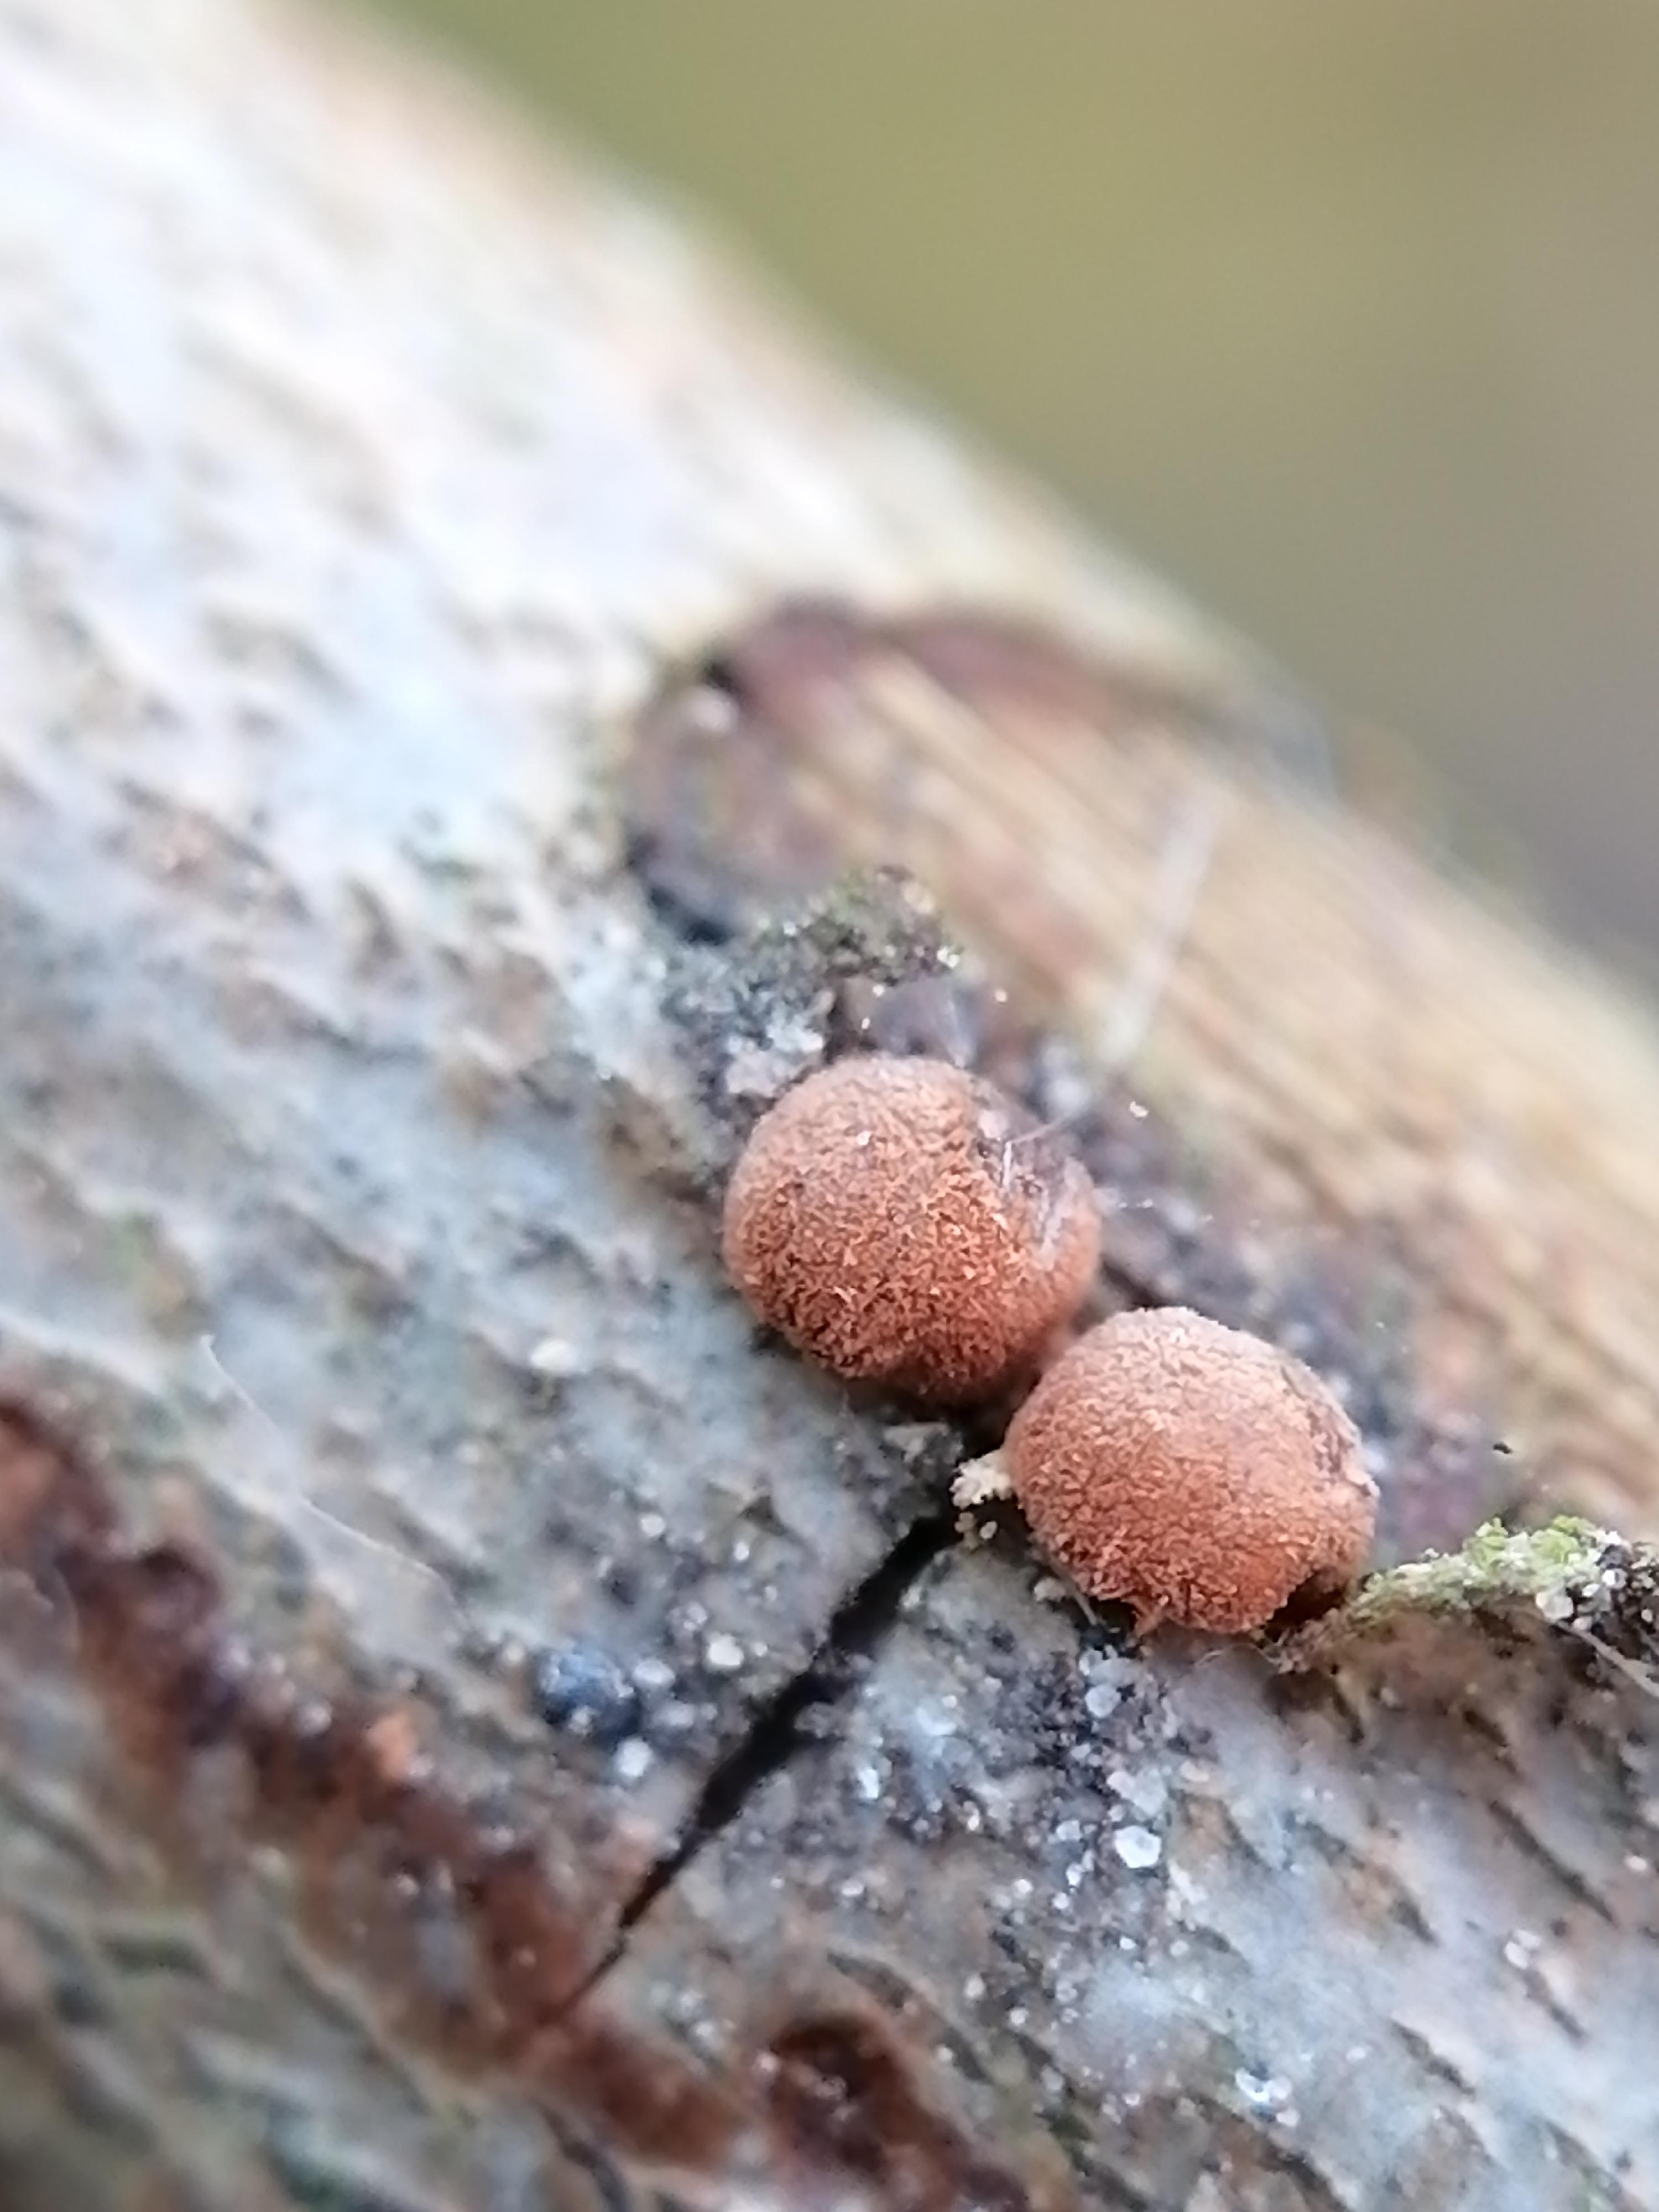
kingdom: Fungi
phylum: Ascomycota
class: Sordariomycetes
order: Xylariales
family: Hypoxylaceae
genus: Hypoxylon
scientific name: Hypoxylon howeanum
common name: halvkugleformet kulbær
